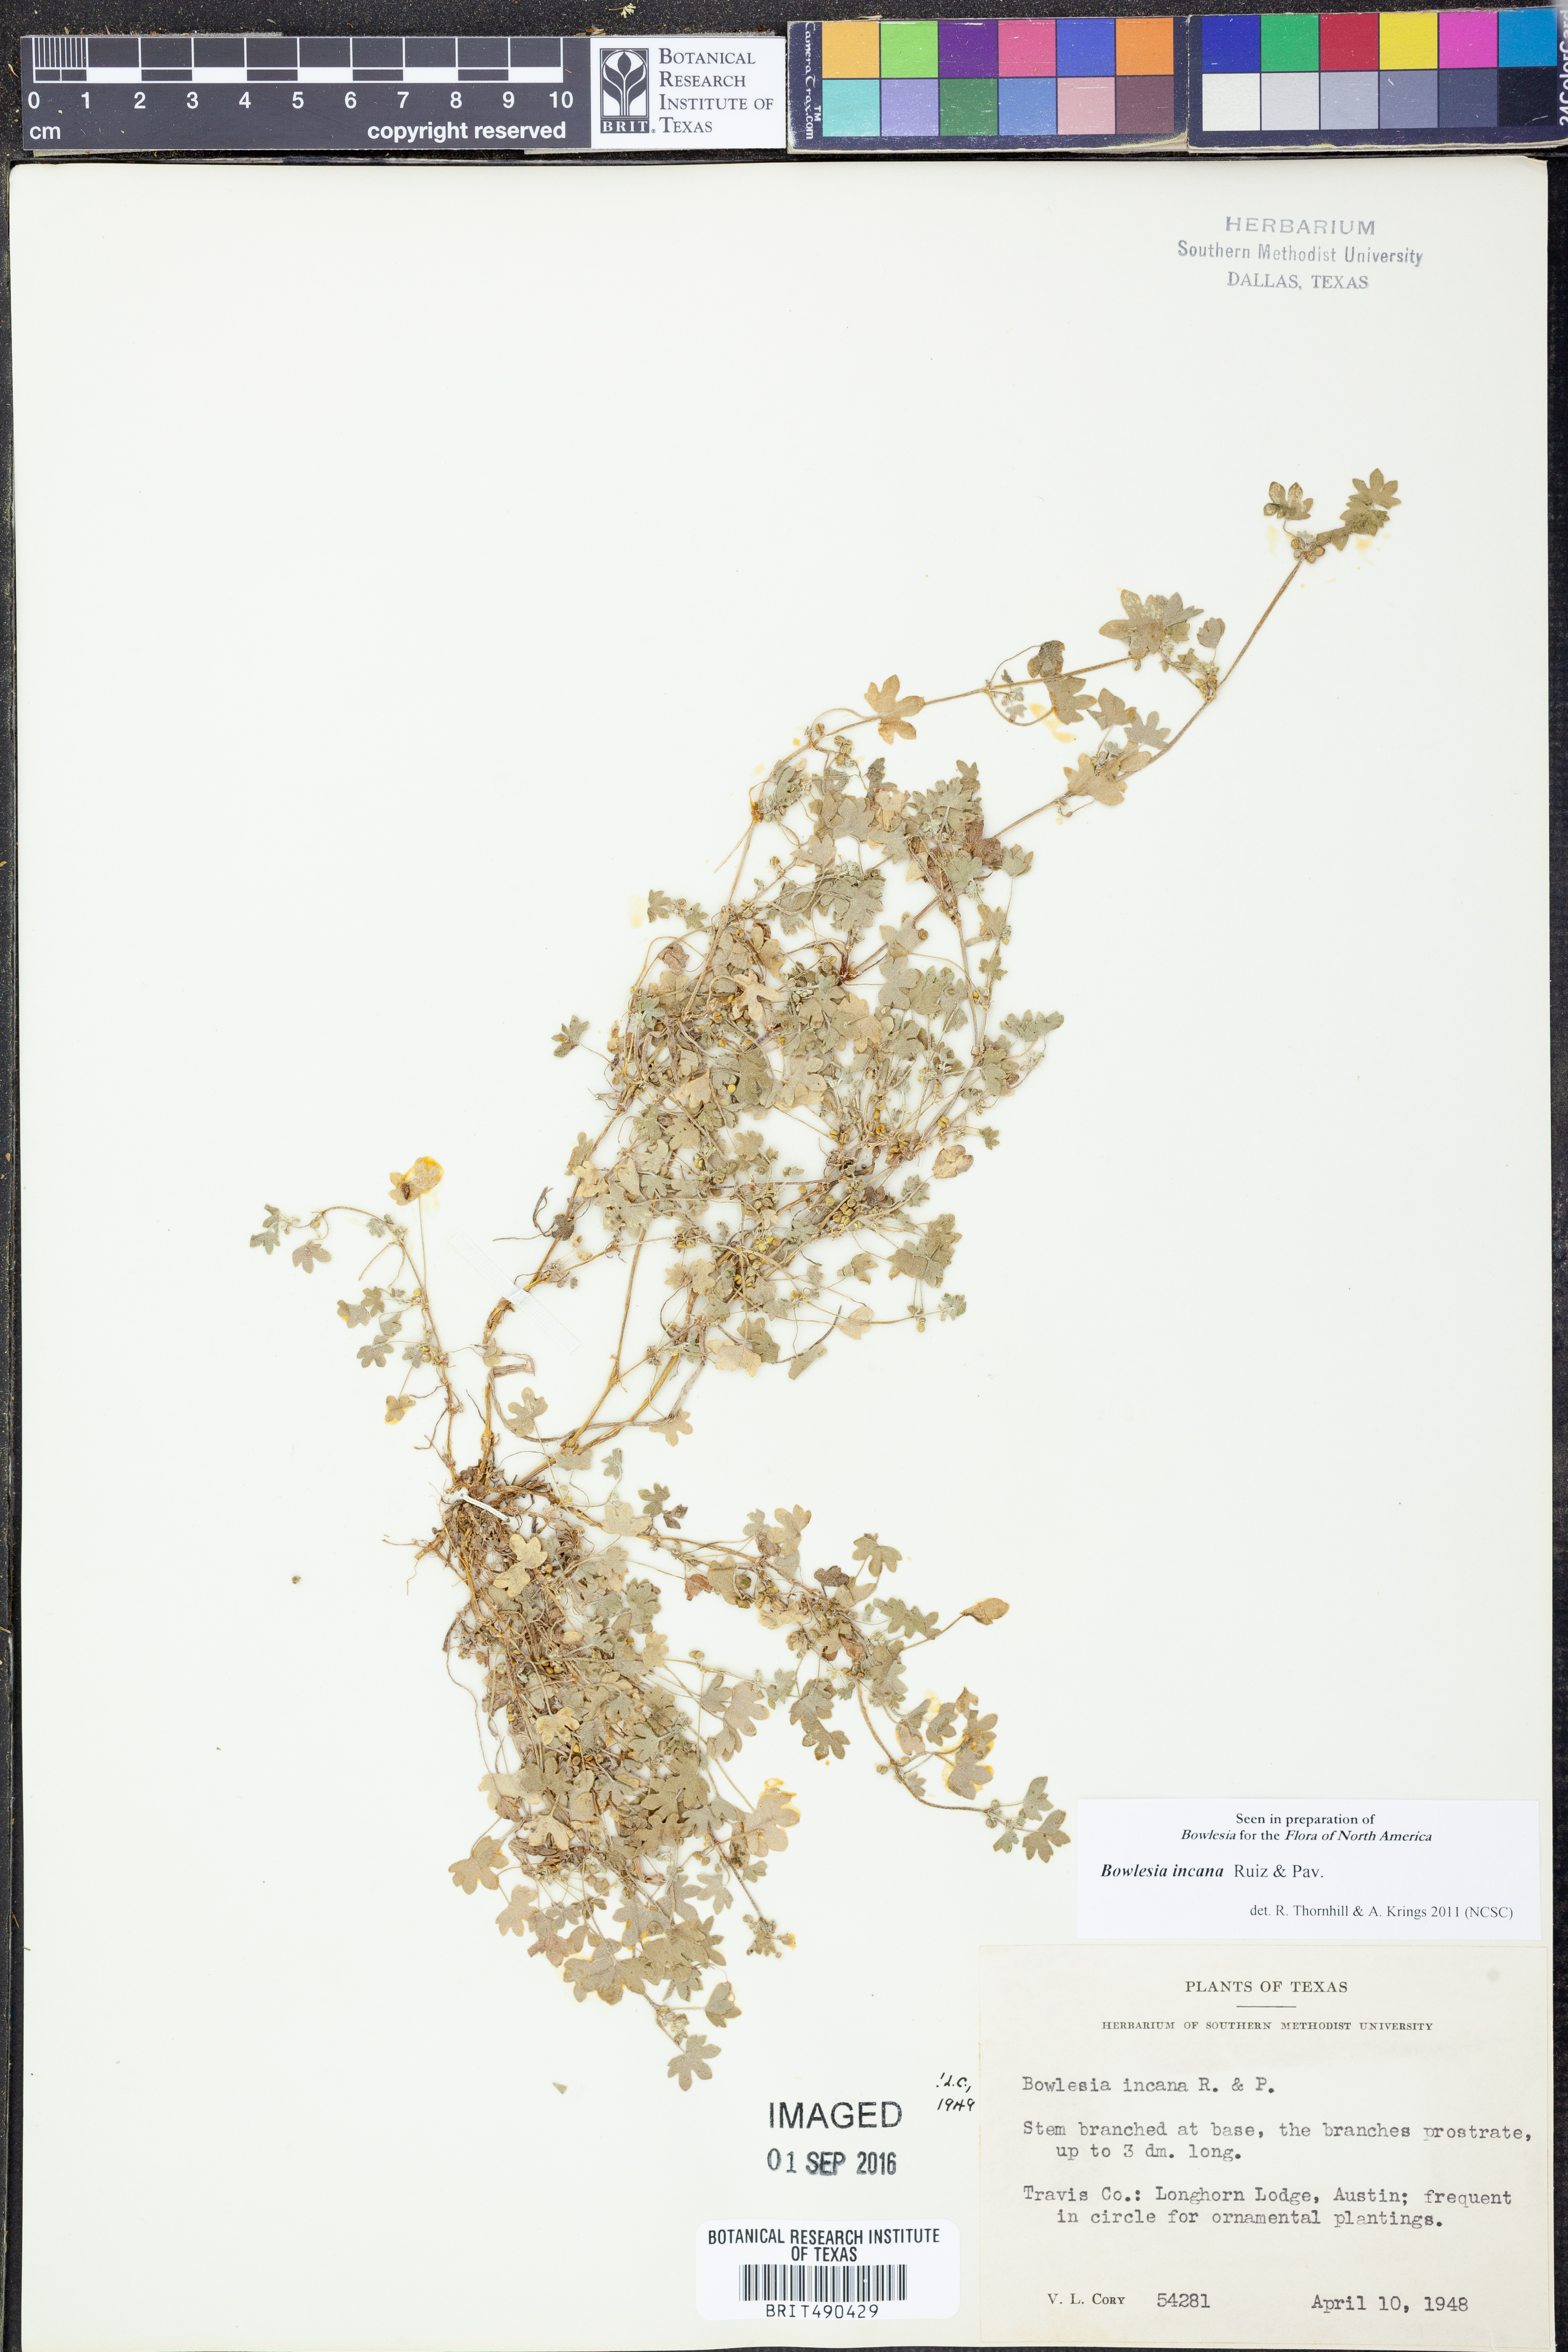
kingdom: Plantae
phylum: Tracheophyta
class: Magnoliopsida
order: Apiales
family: Apiaceae
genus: Bowlesia
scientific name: Bowlesia incana
